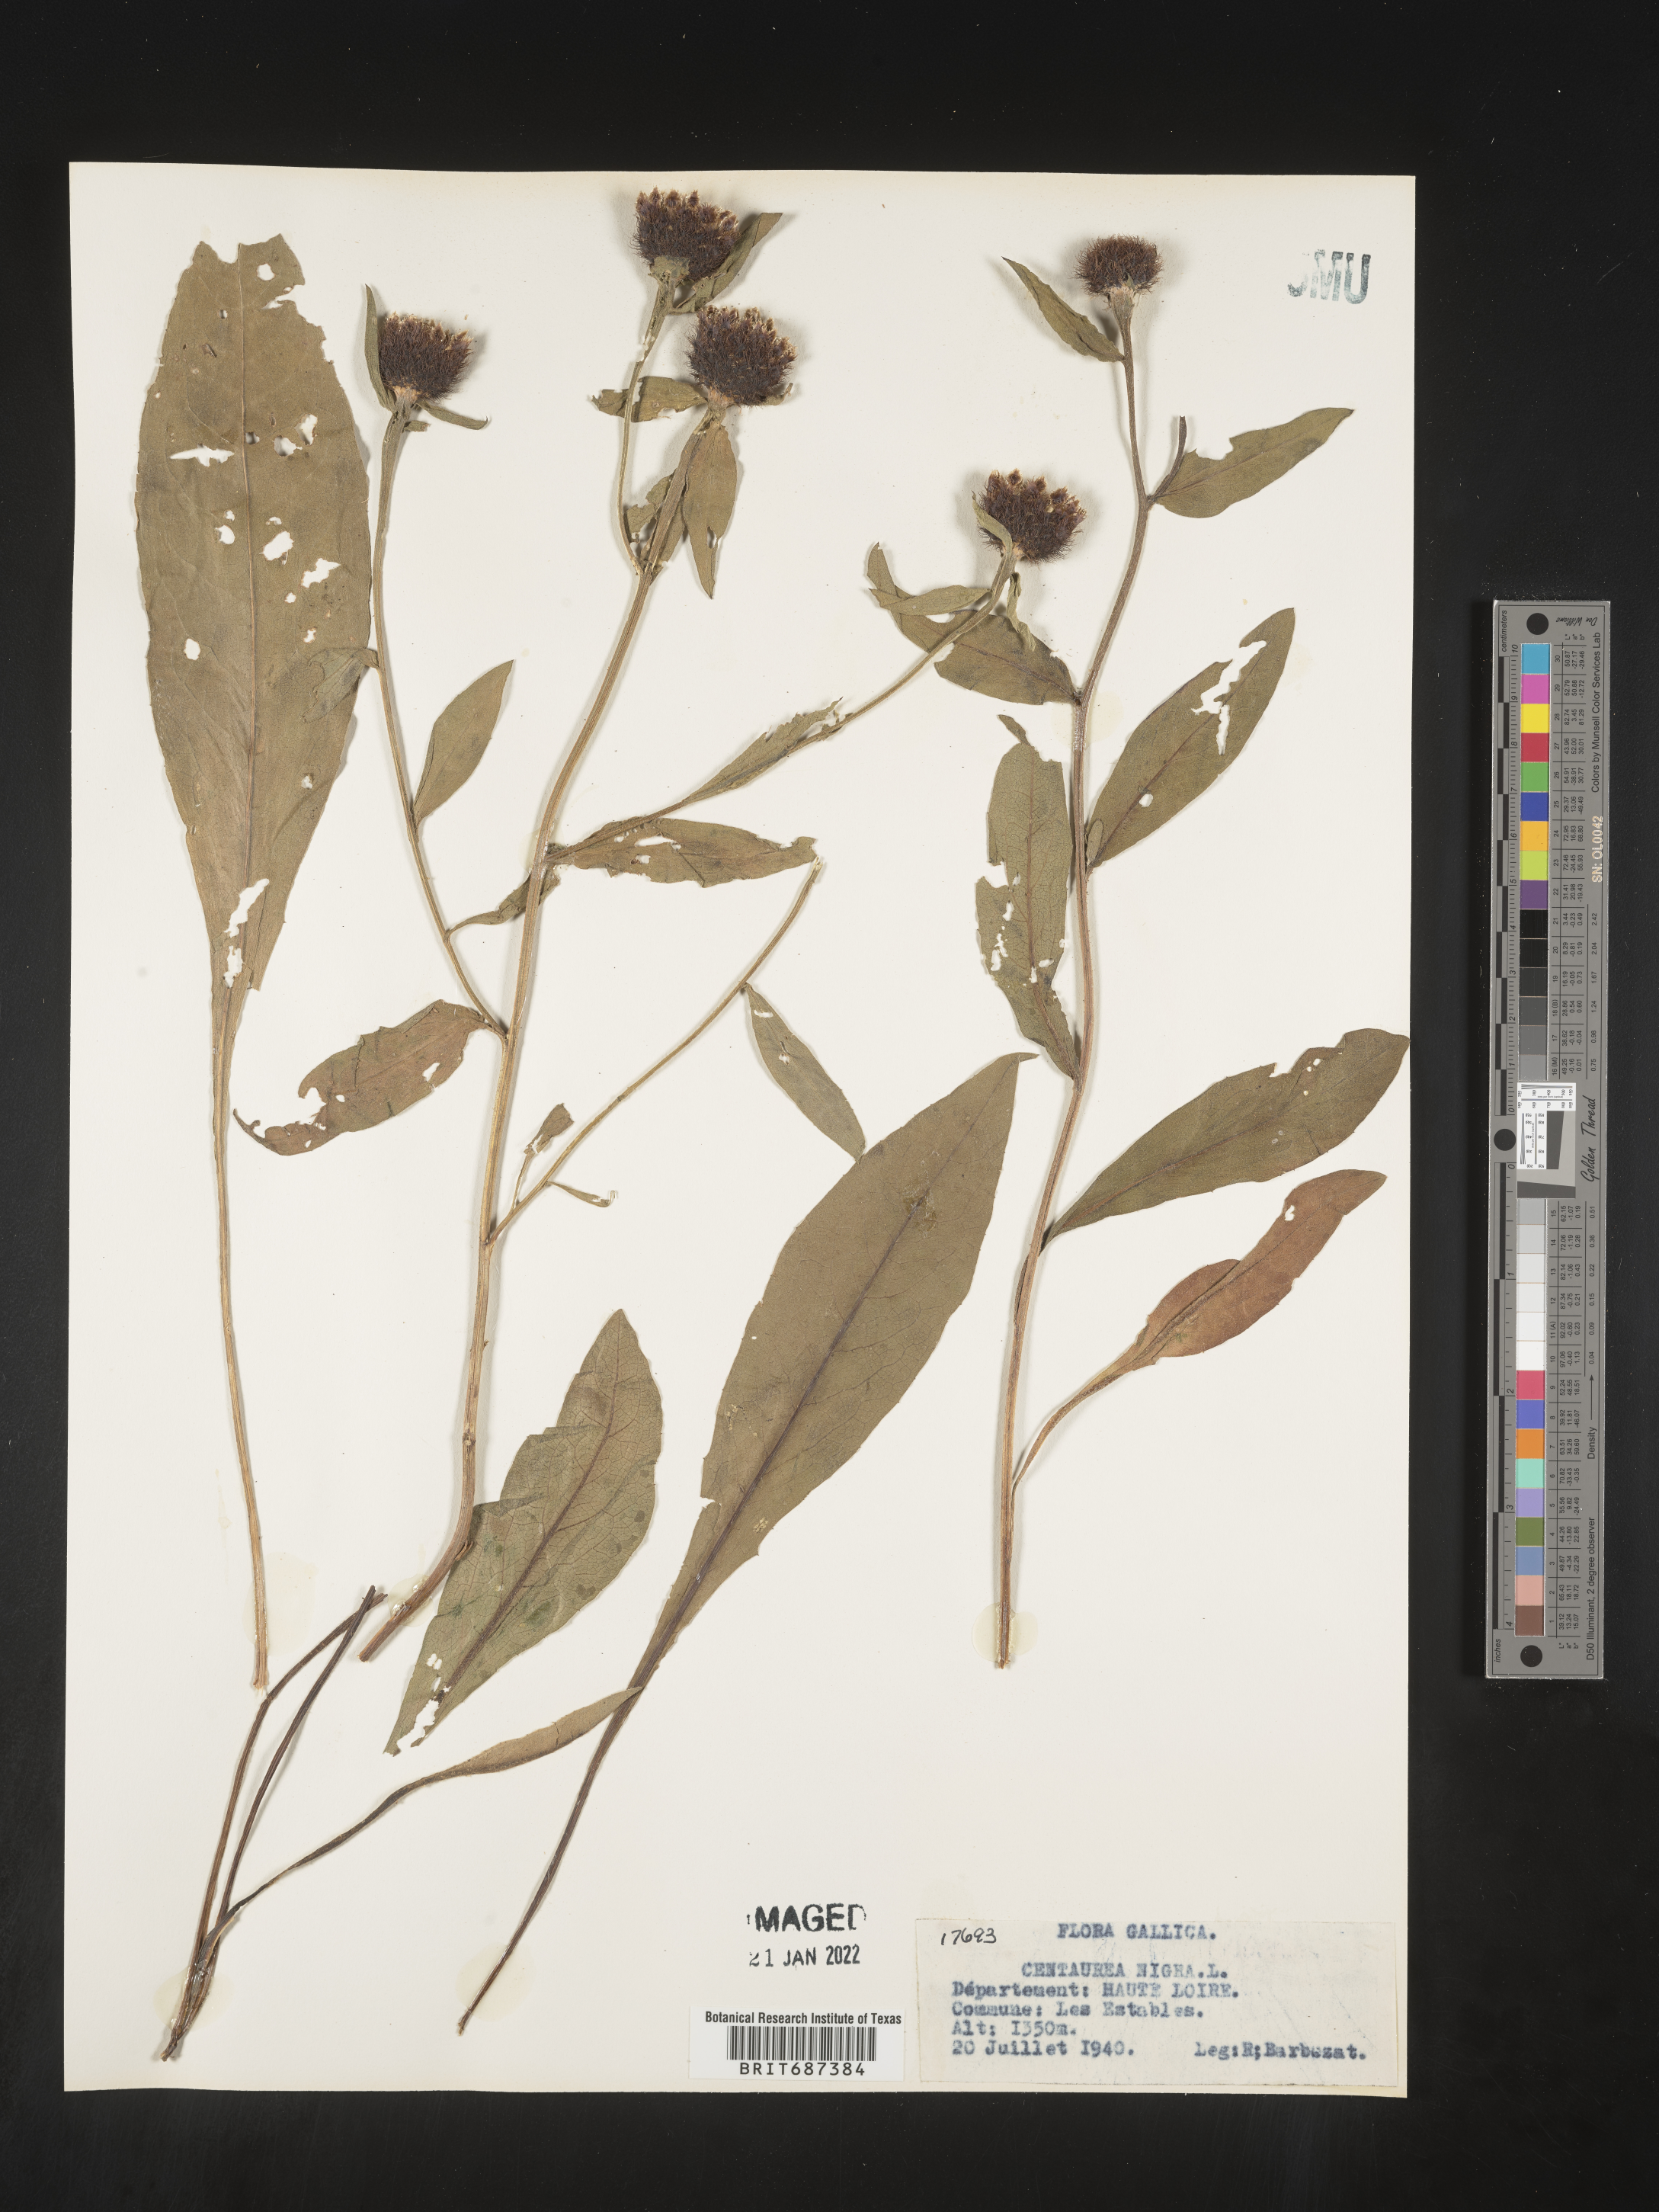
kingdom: Plantae
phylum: Tracheophyta
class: Magnoliopsida
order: Asterales
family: Asteraceae
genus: Centaurea
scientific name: Centaurea
